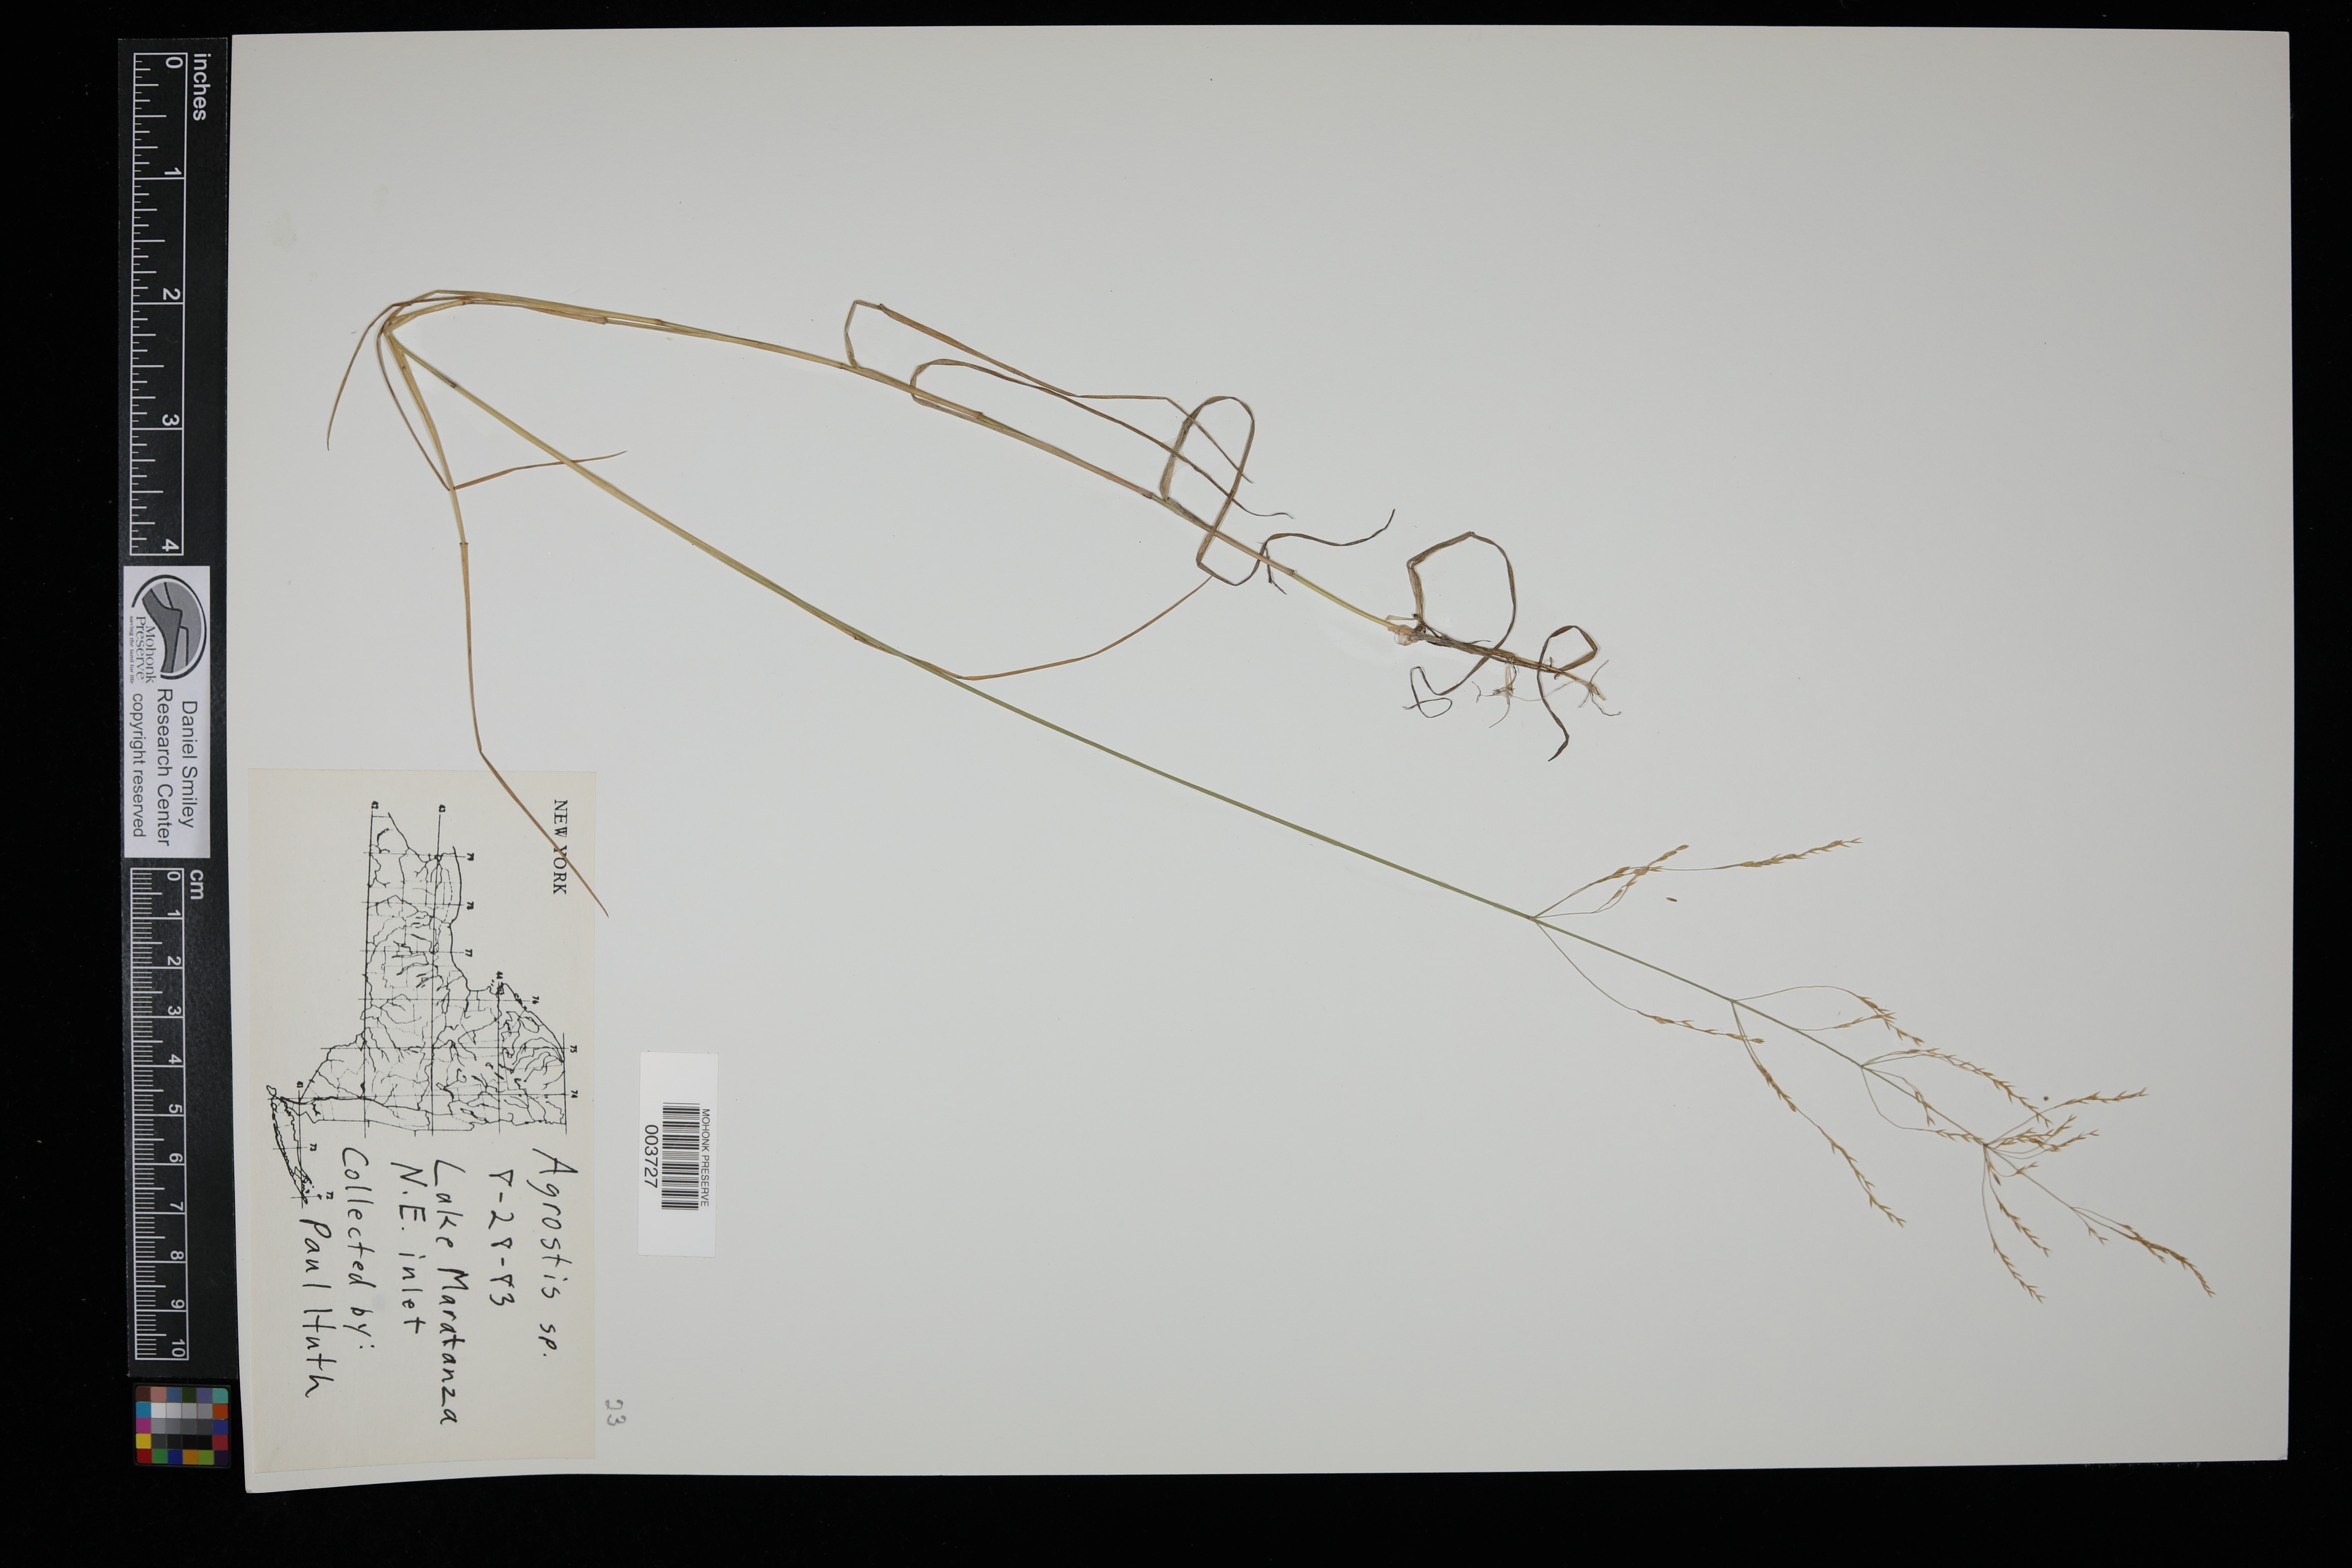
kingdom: Plantae
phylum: Tracheophyta
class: Liliopsida
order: Poales
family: Poaceae
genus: Agrostis
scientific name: Agrostis
